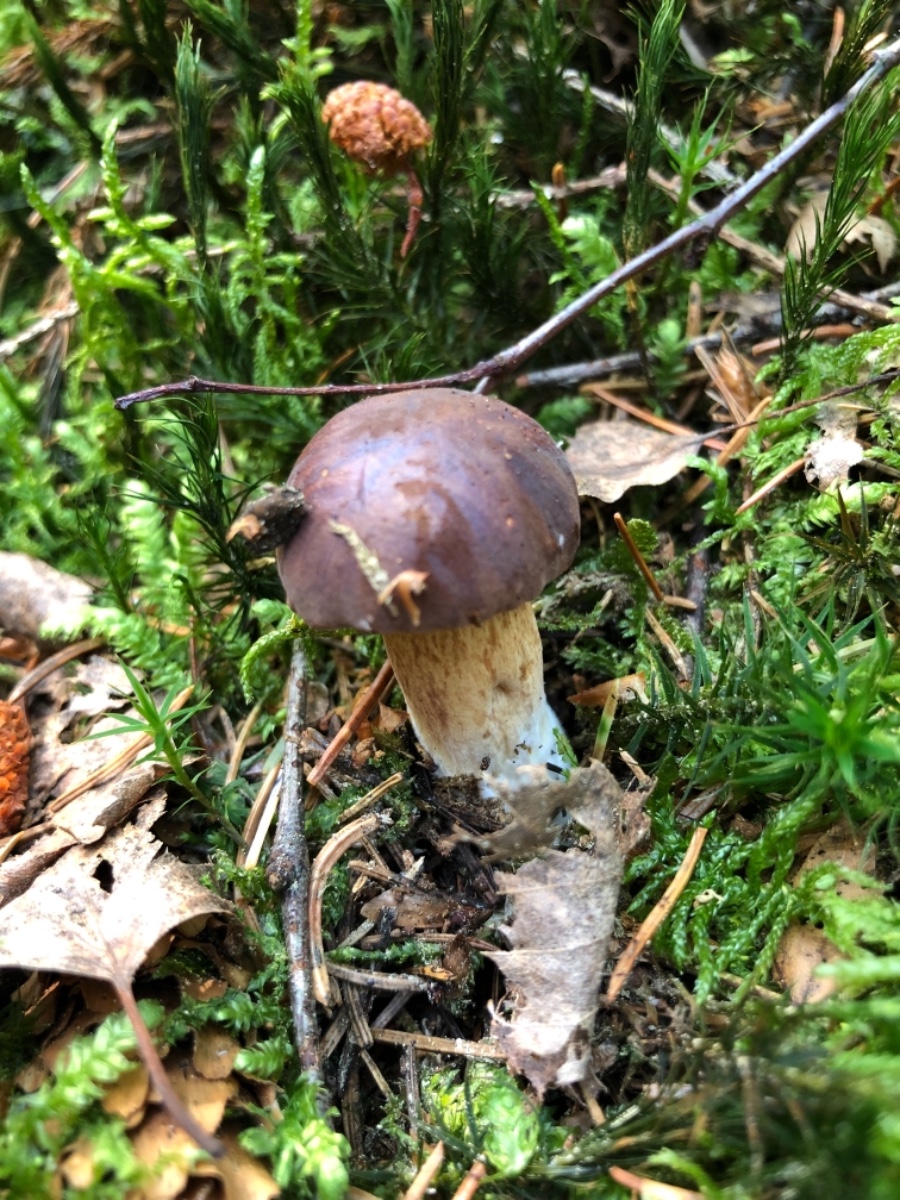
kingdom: Fungi
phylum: Basidiomycota
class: Agaricomycetes
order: Boletales
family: Boletaceae
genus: Imleria
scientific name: Imleria badia
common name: brunstokket rørhat
